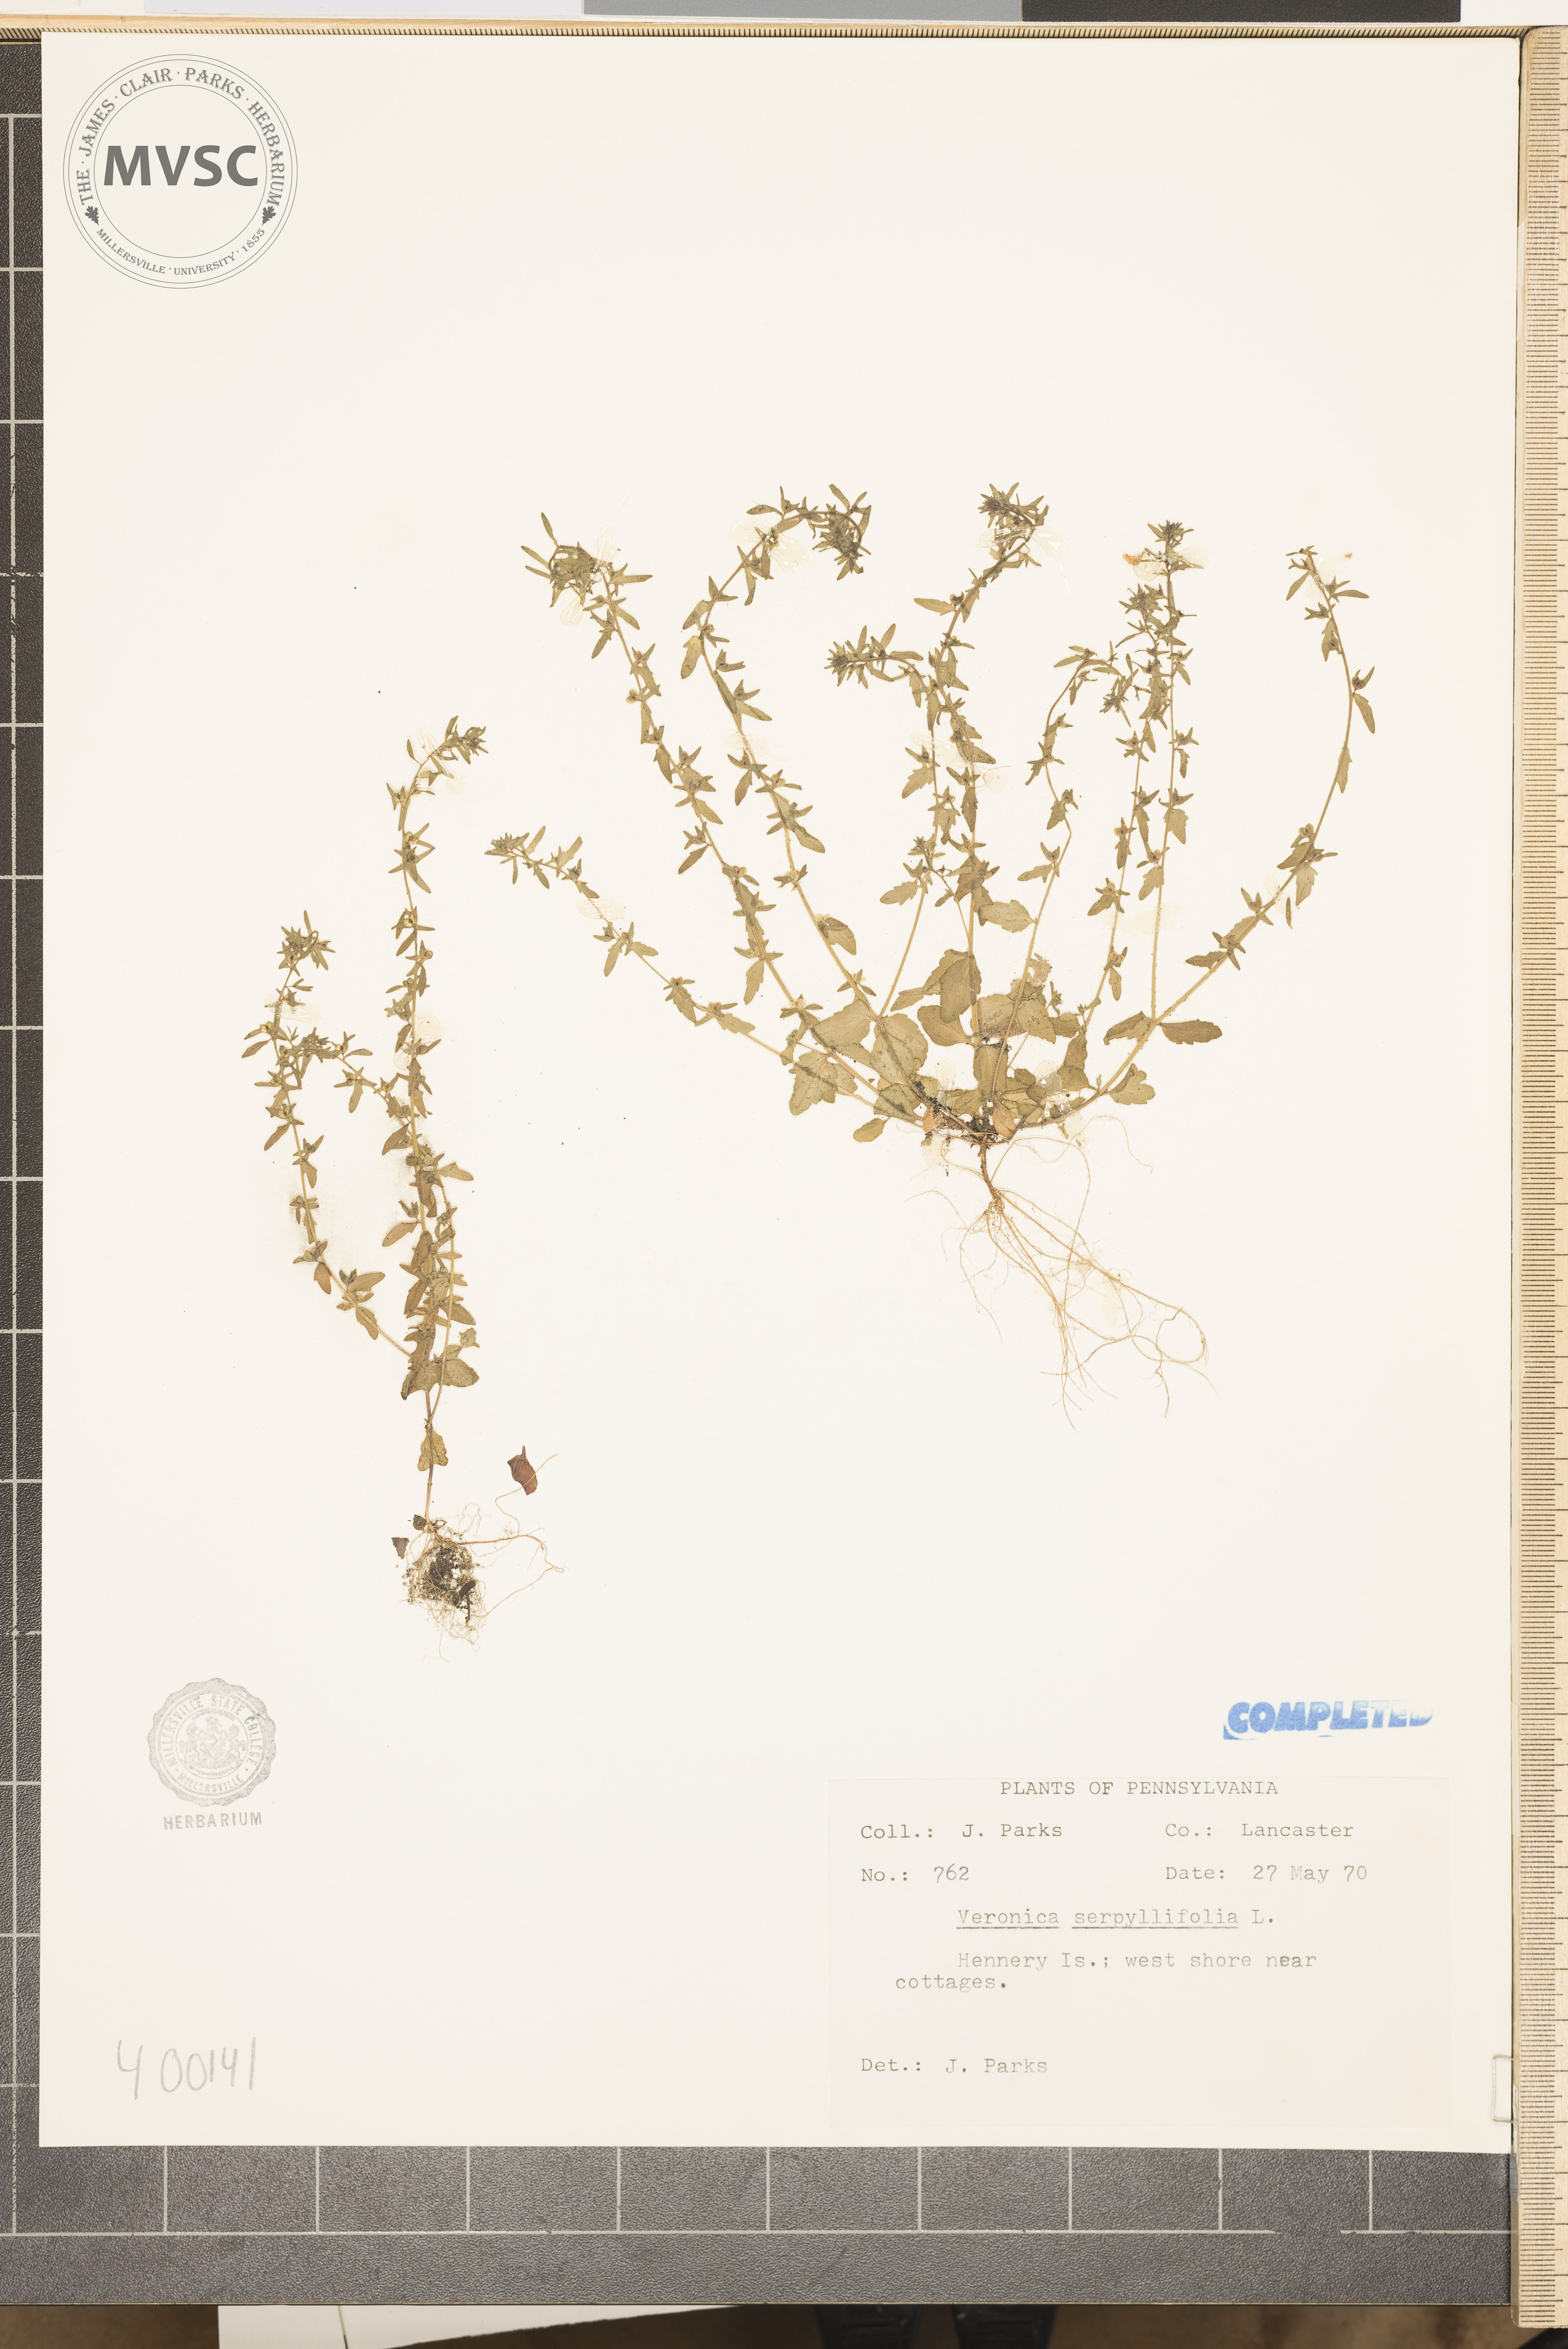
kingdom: Plantae
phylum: Tracheophyta
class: Magnoliopsida
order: Lamiales
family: Plantaginaceae
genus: Veronica
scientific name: Veronica serpyllifolia
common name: speedwell
